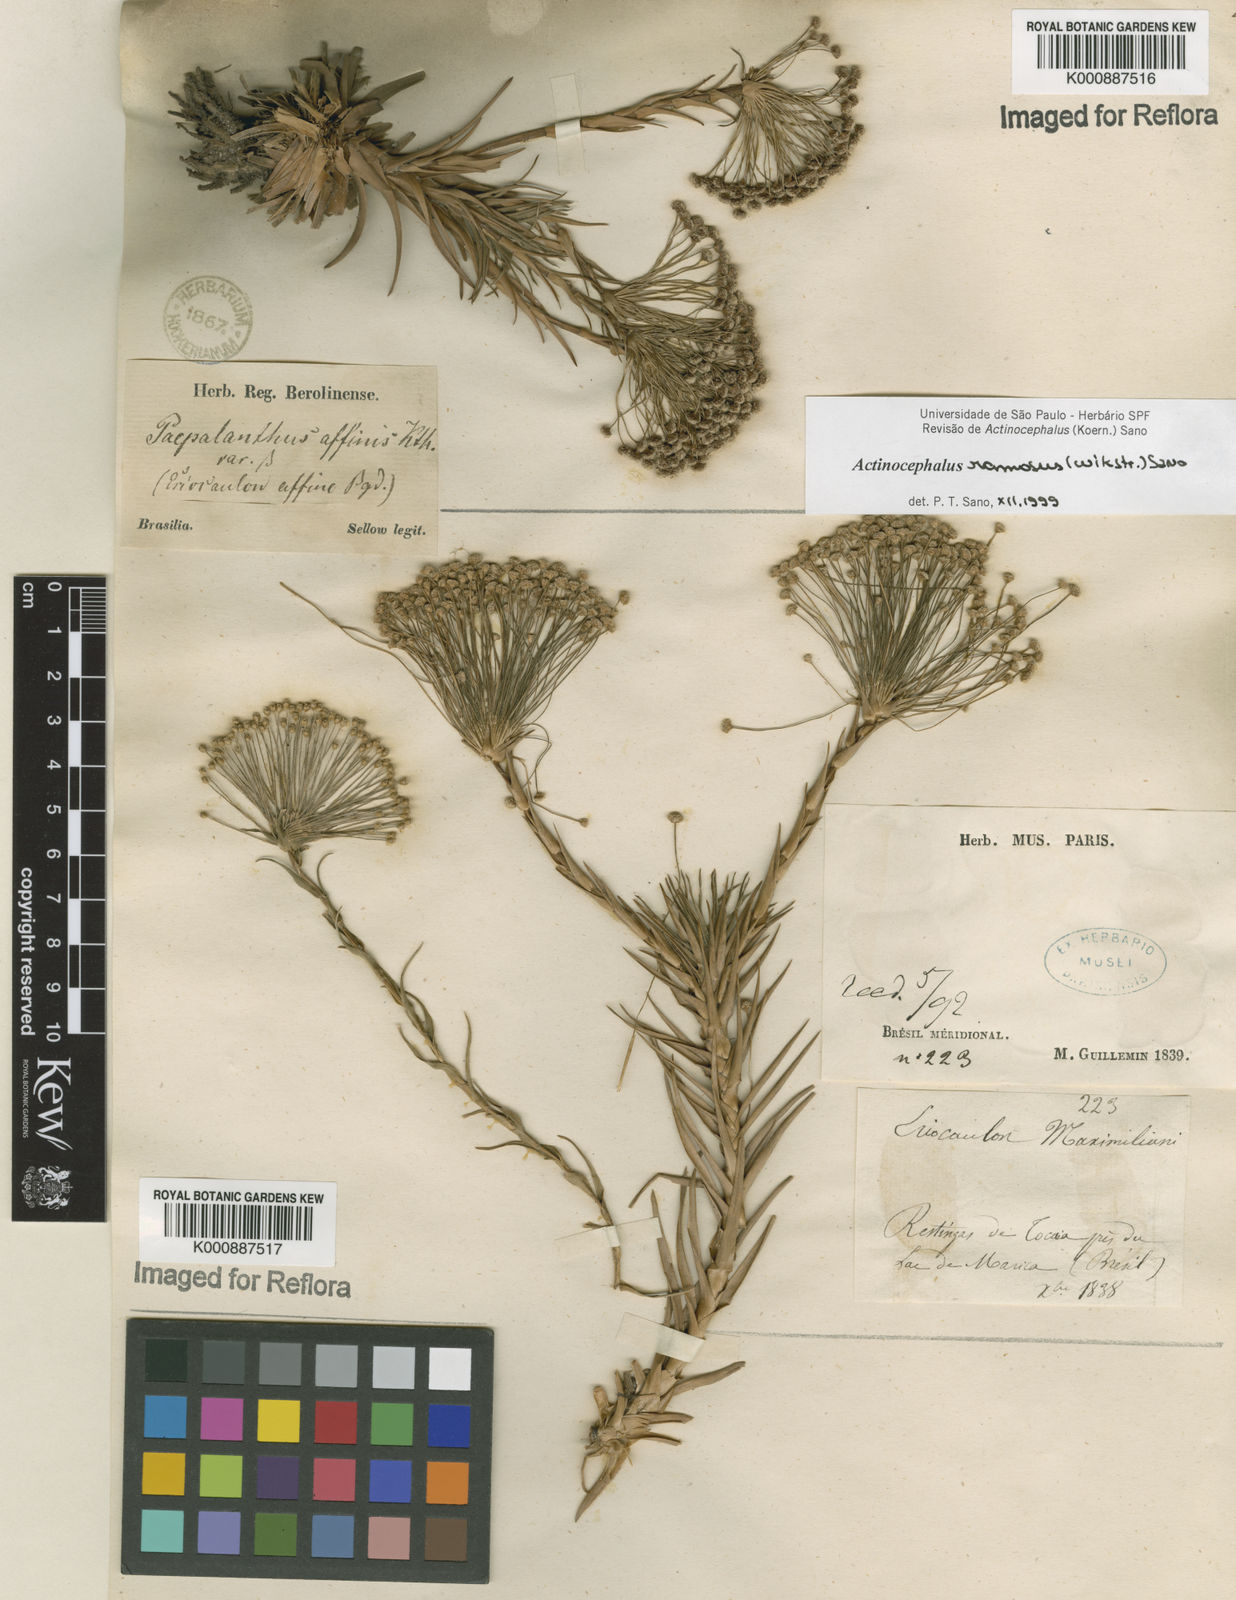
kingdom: Plantae
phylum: Tracheophyta
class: Liliopsida
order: Poales
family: Eriocaulaceae
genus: Paepalanthus
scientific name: Paepalanthus ramosus
